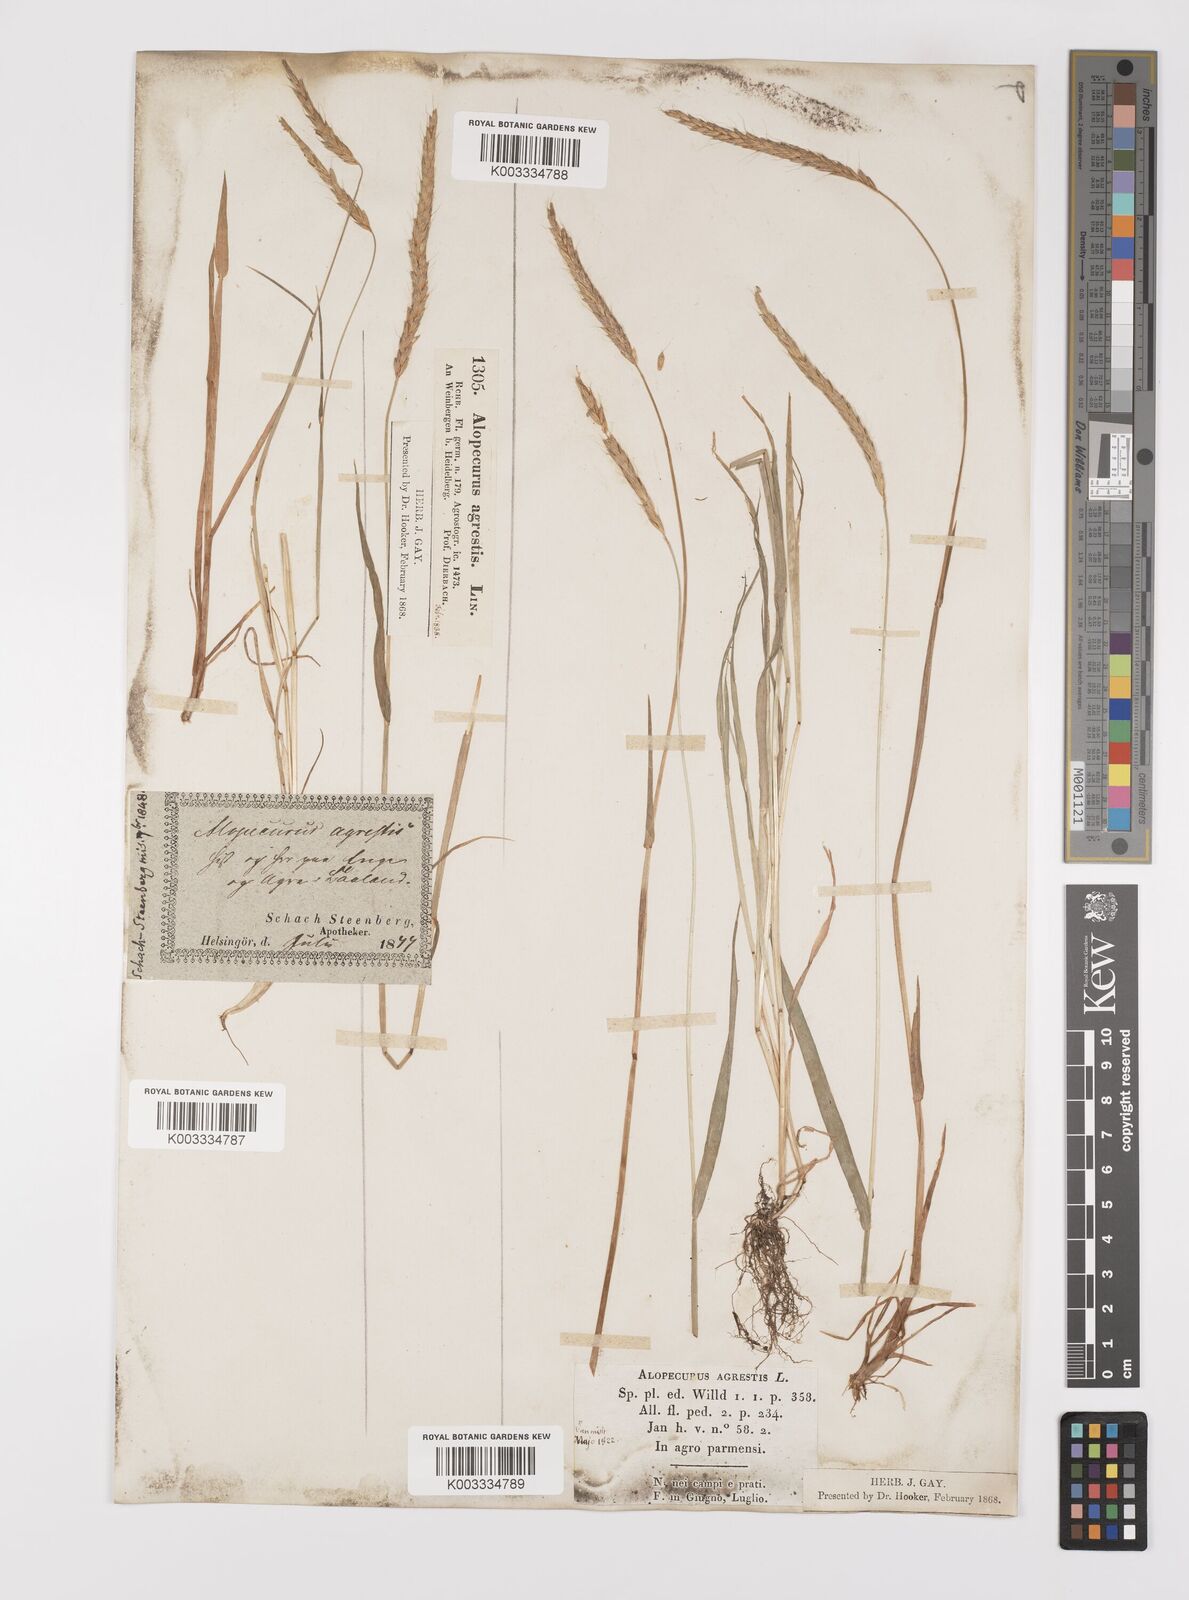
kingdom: Plantae
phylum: Tracheophyta
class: Liliopsida
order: Poales
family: Poaceae
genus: Alopecurus
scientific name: Alopecurus myosuroides
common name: Black-grass
